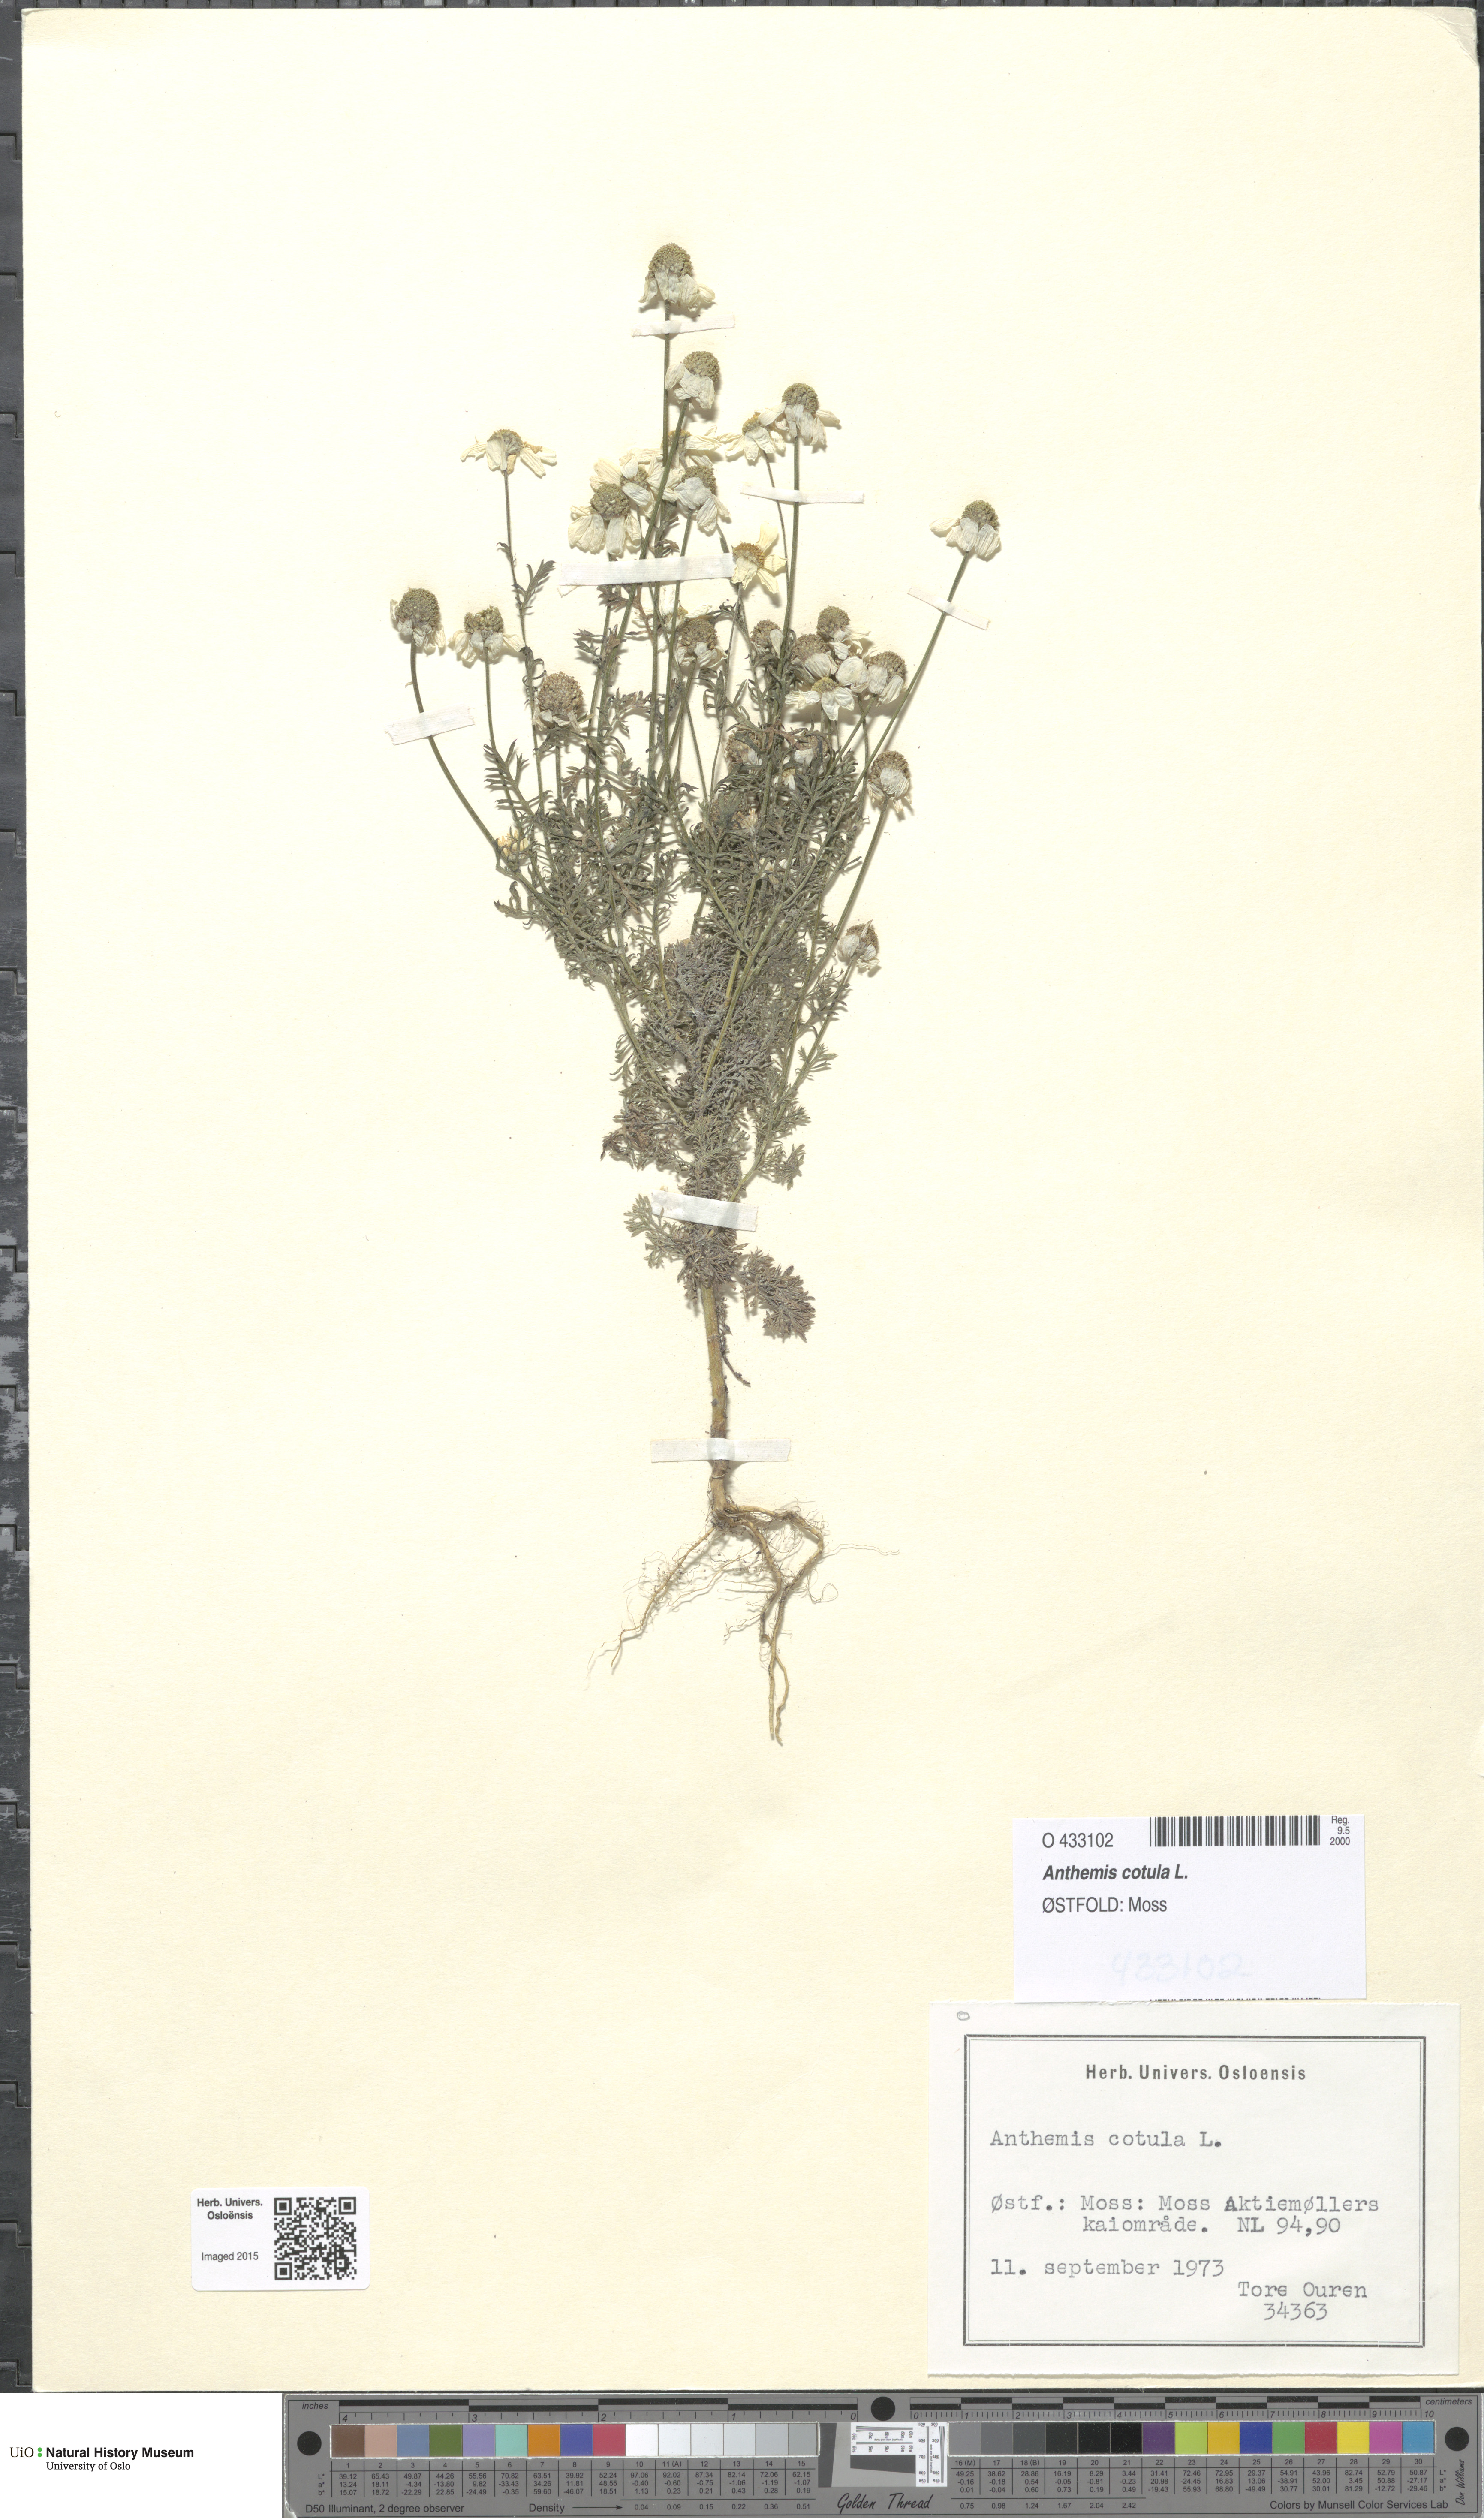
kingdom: Plantae
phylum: Tracheophyta
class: Magnoliopsida
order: Asterales
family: Asteraceae
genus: Anthemis
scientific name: Anthemis cotula
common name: Stinking chamomile
